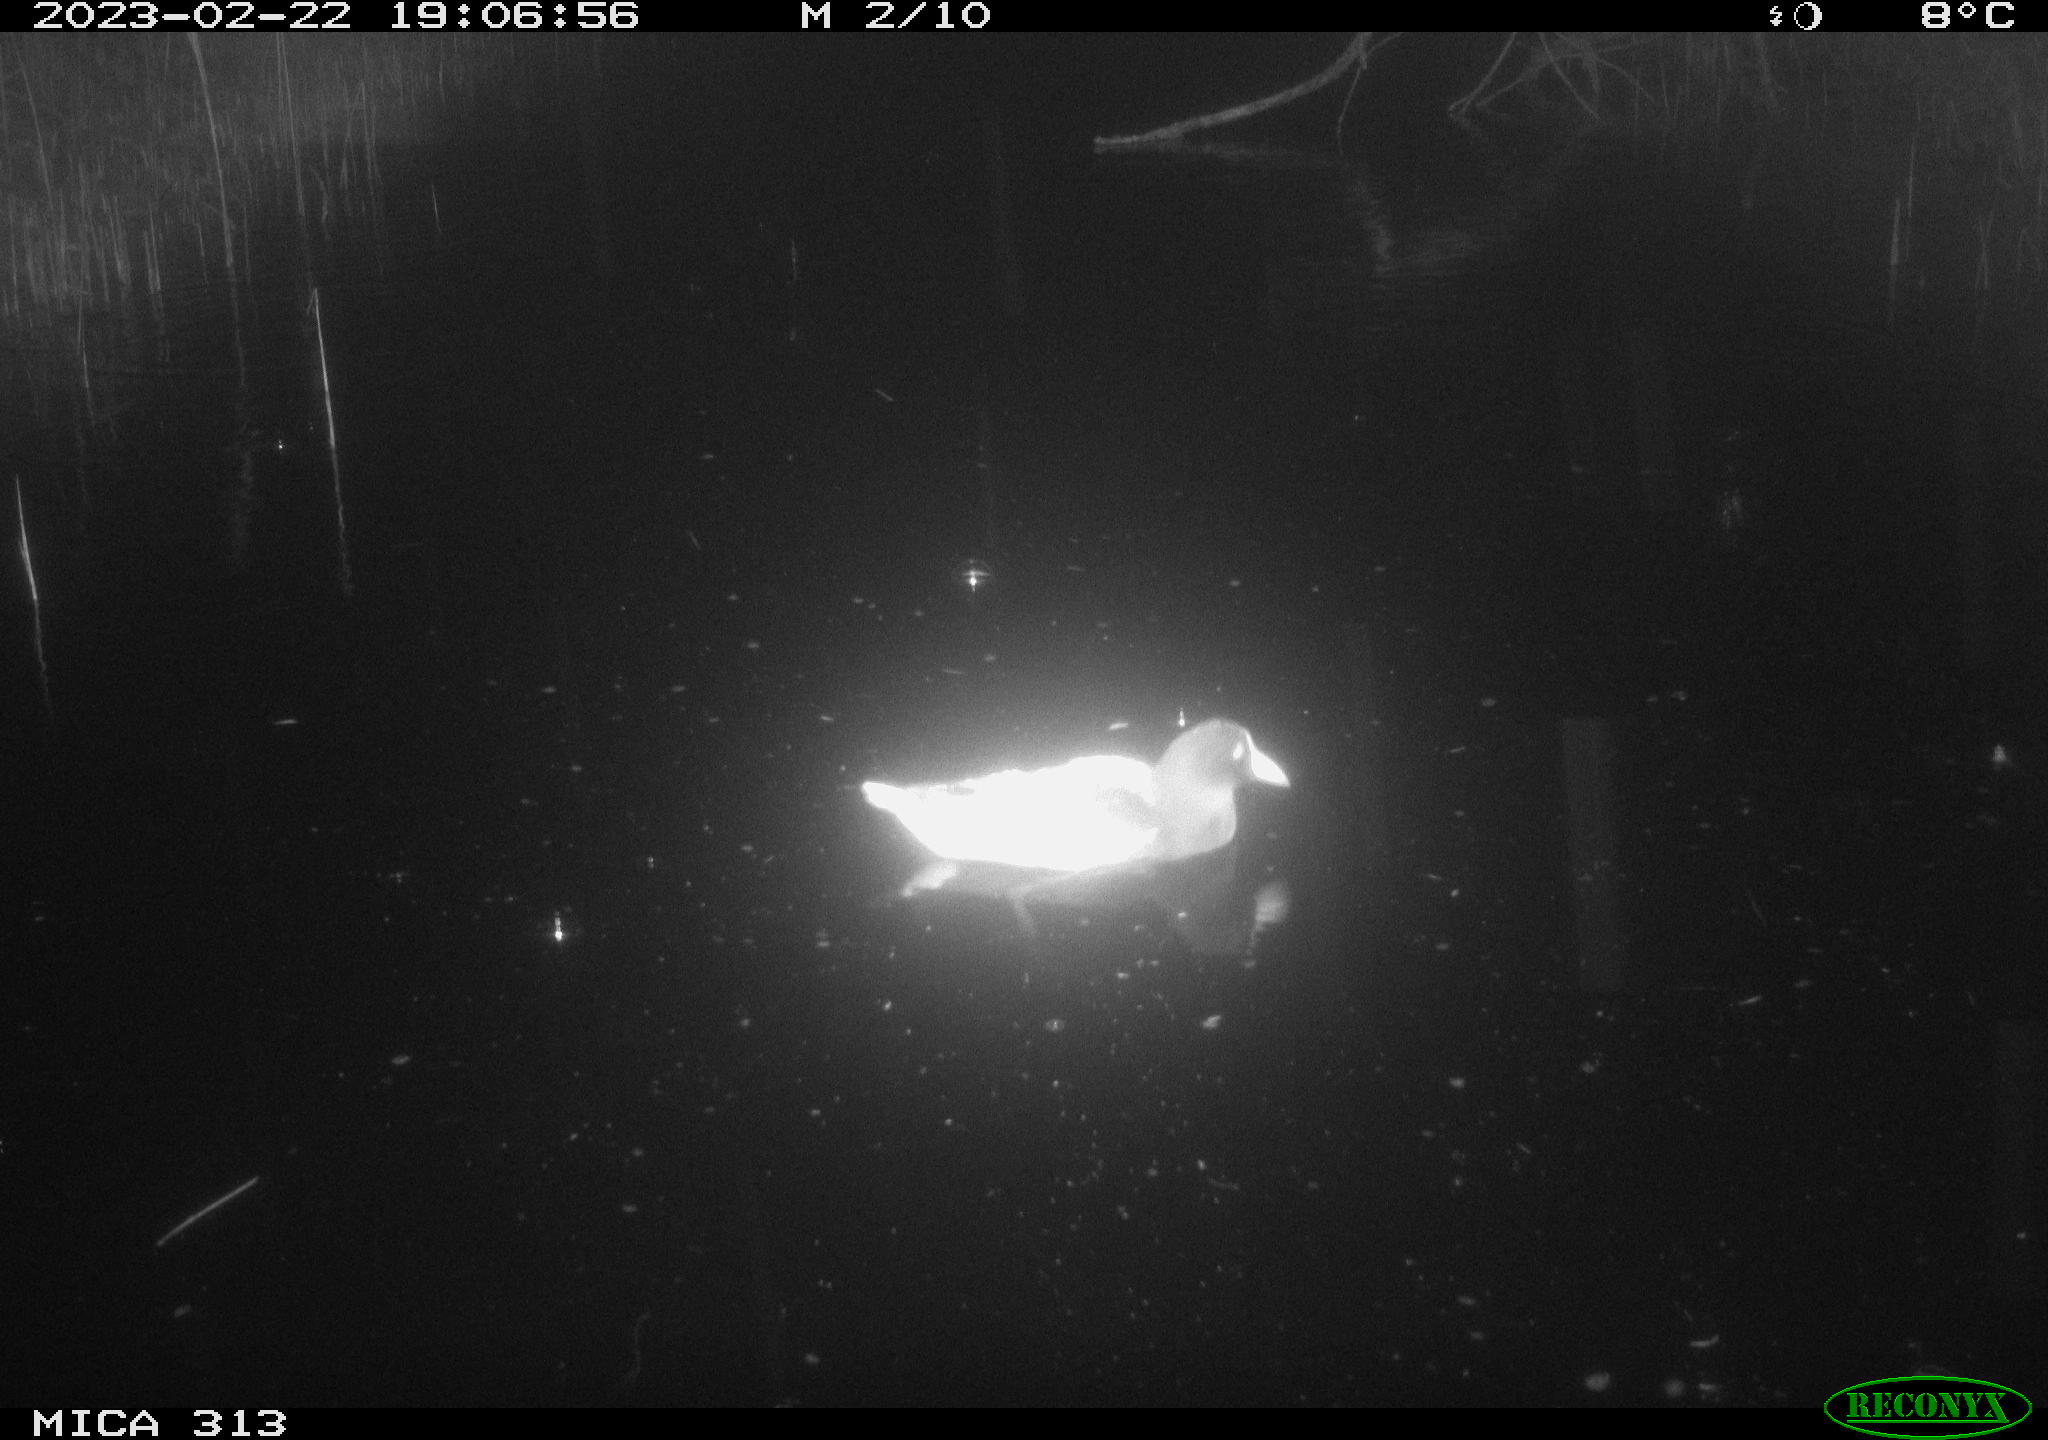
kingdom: Animalia
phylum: Chordata
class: Aves
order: Gruiformes
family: Rallidae
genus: Gallinula
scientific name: Gallinula chloropus
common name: Common moorhen
